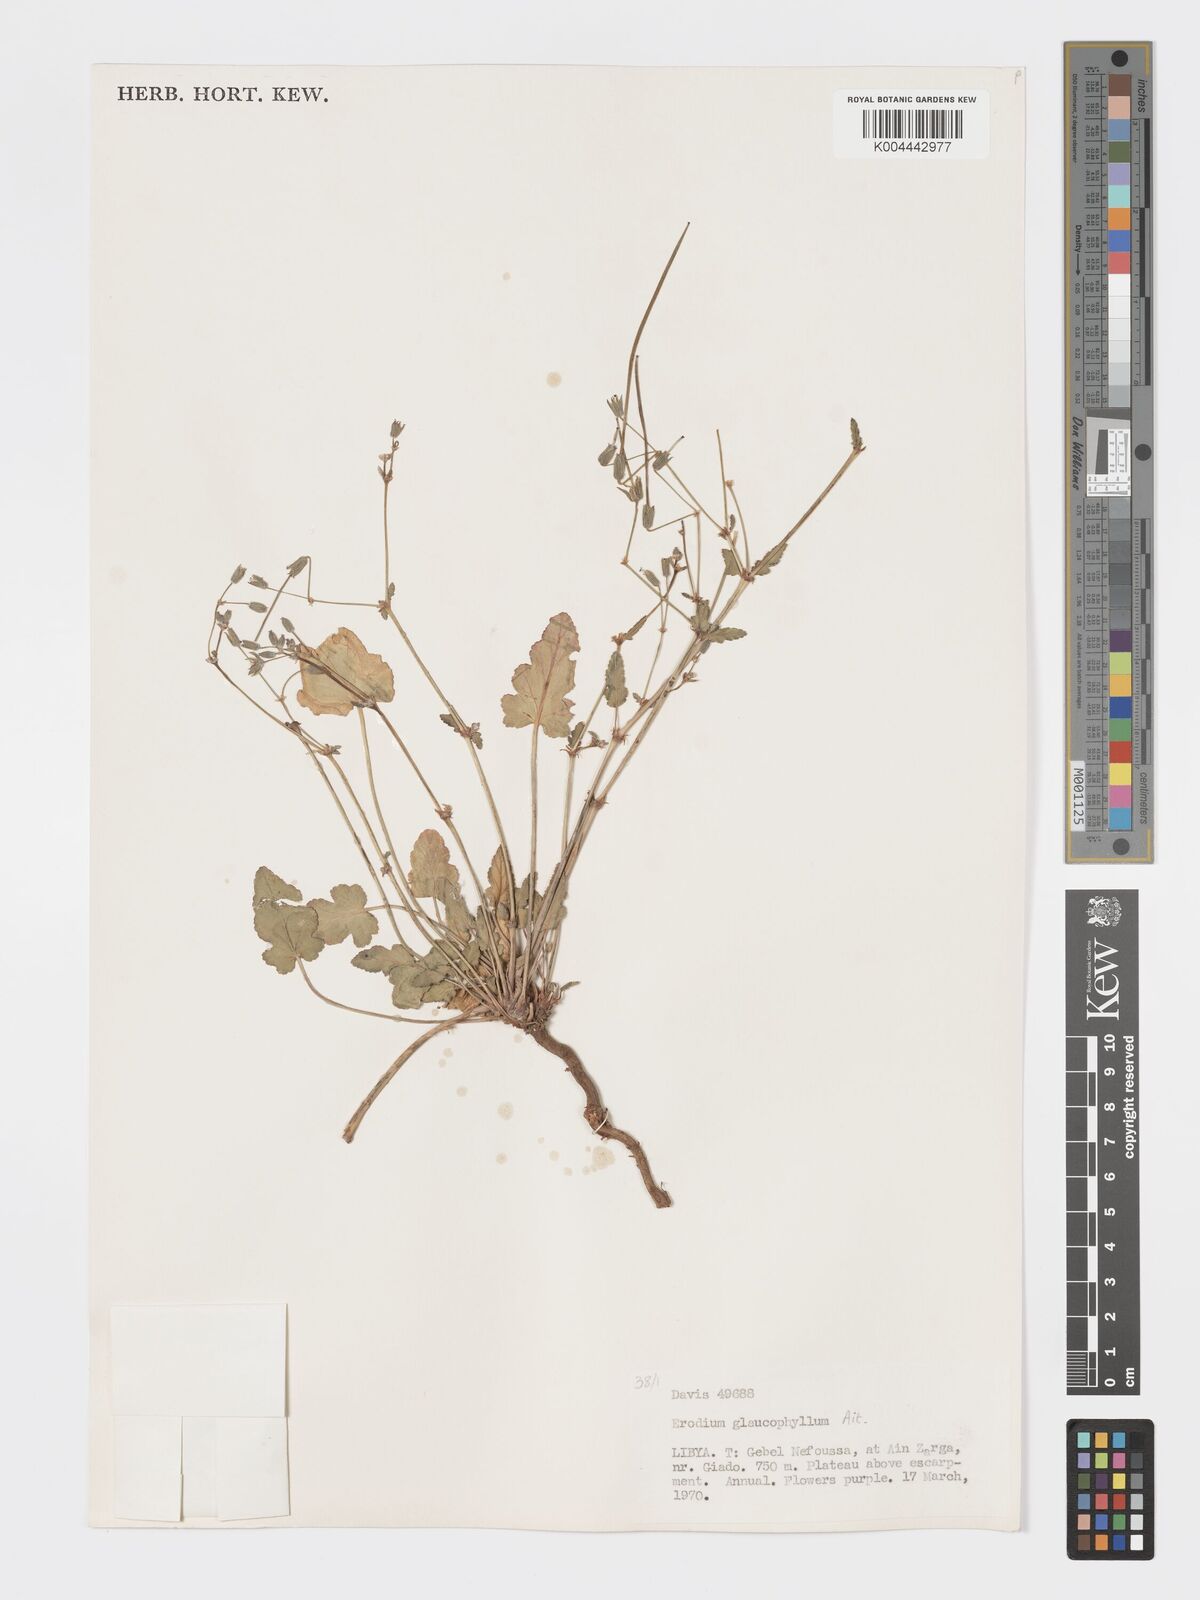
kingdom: Plantae
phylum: Tracheophyta
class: Magnoliopsida
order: Geraniales
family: Geraniaceae
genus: Erodium
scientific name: Erodium glaucophyllum
